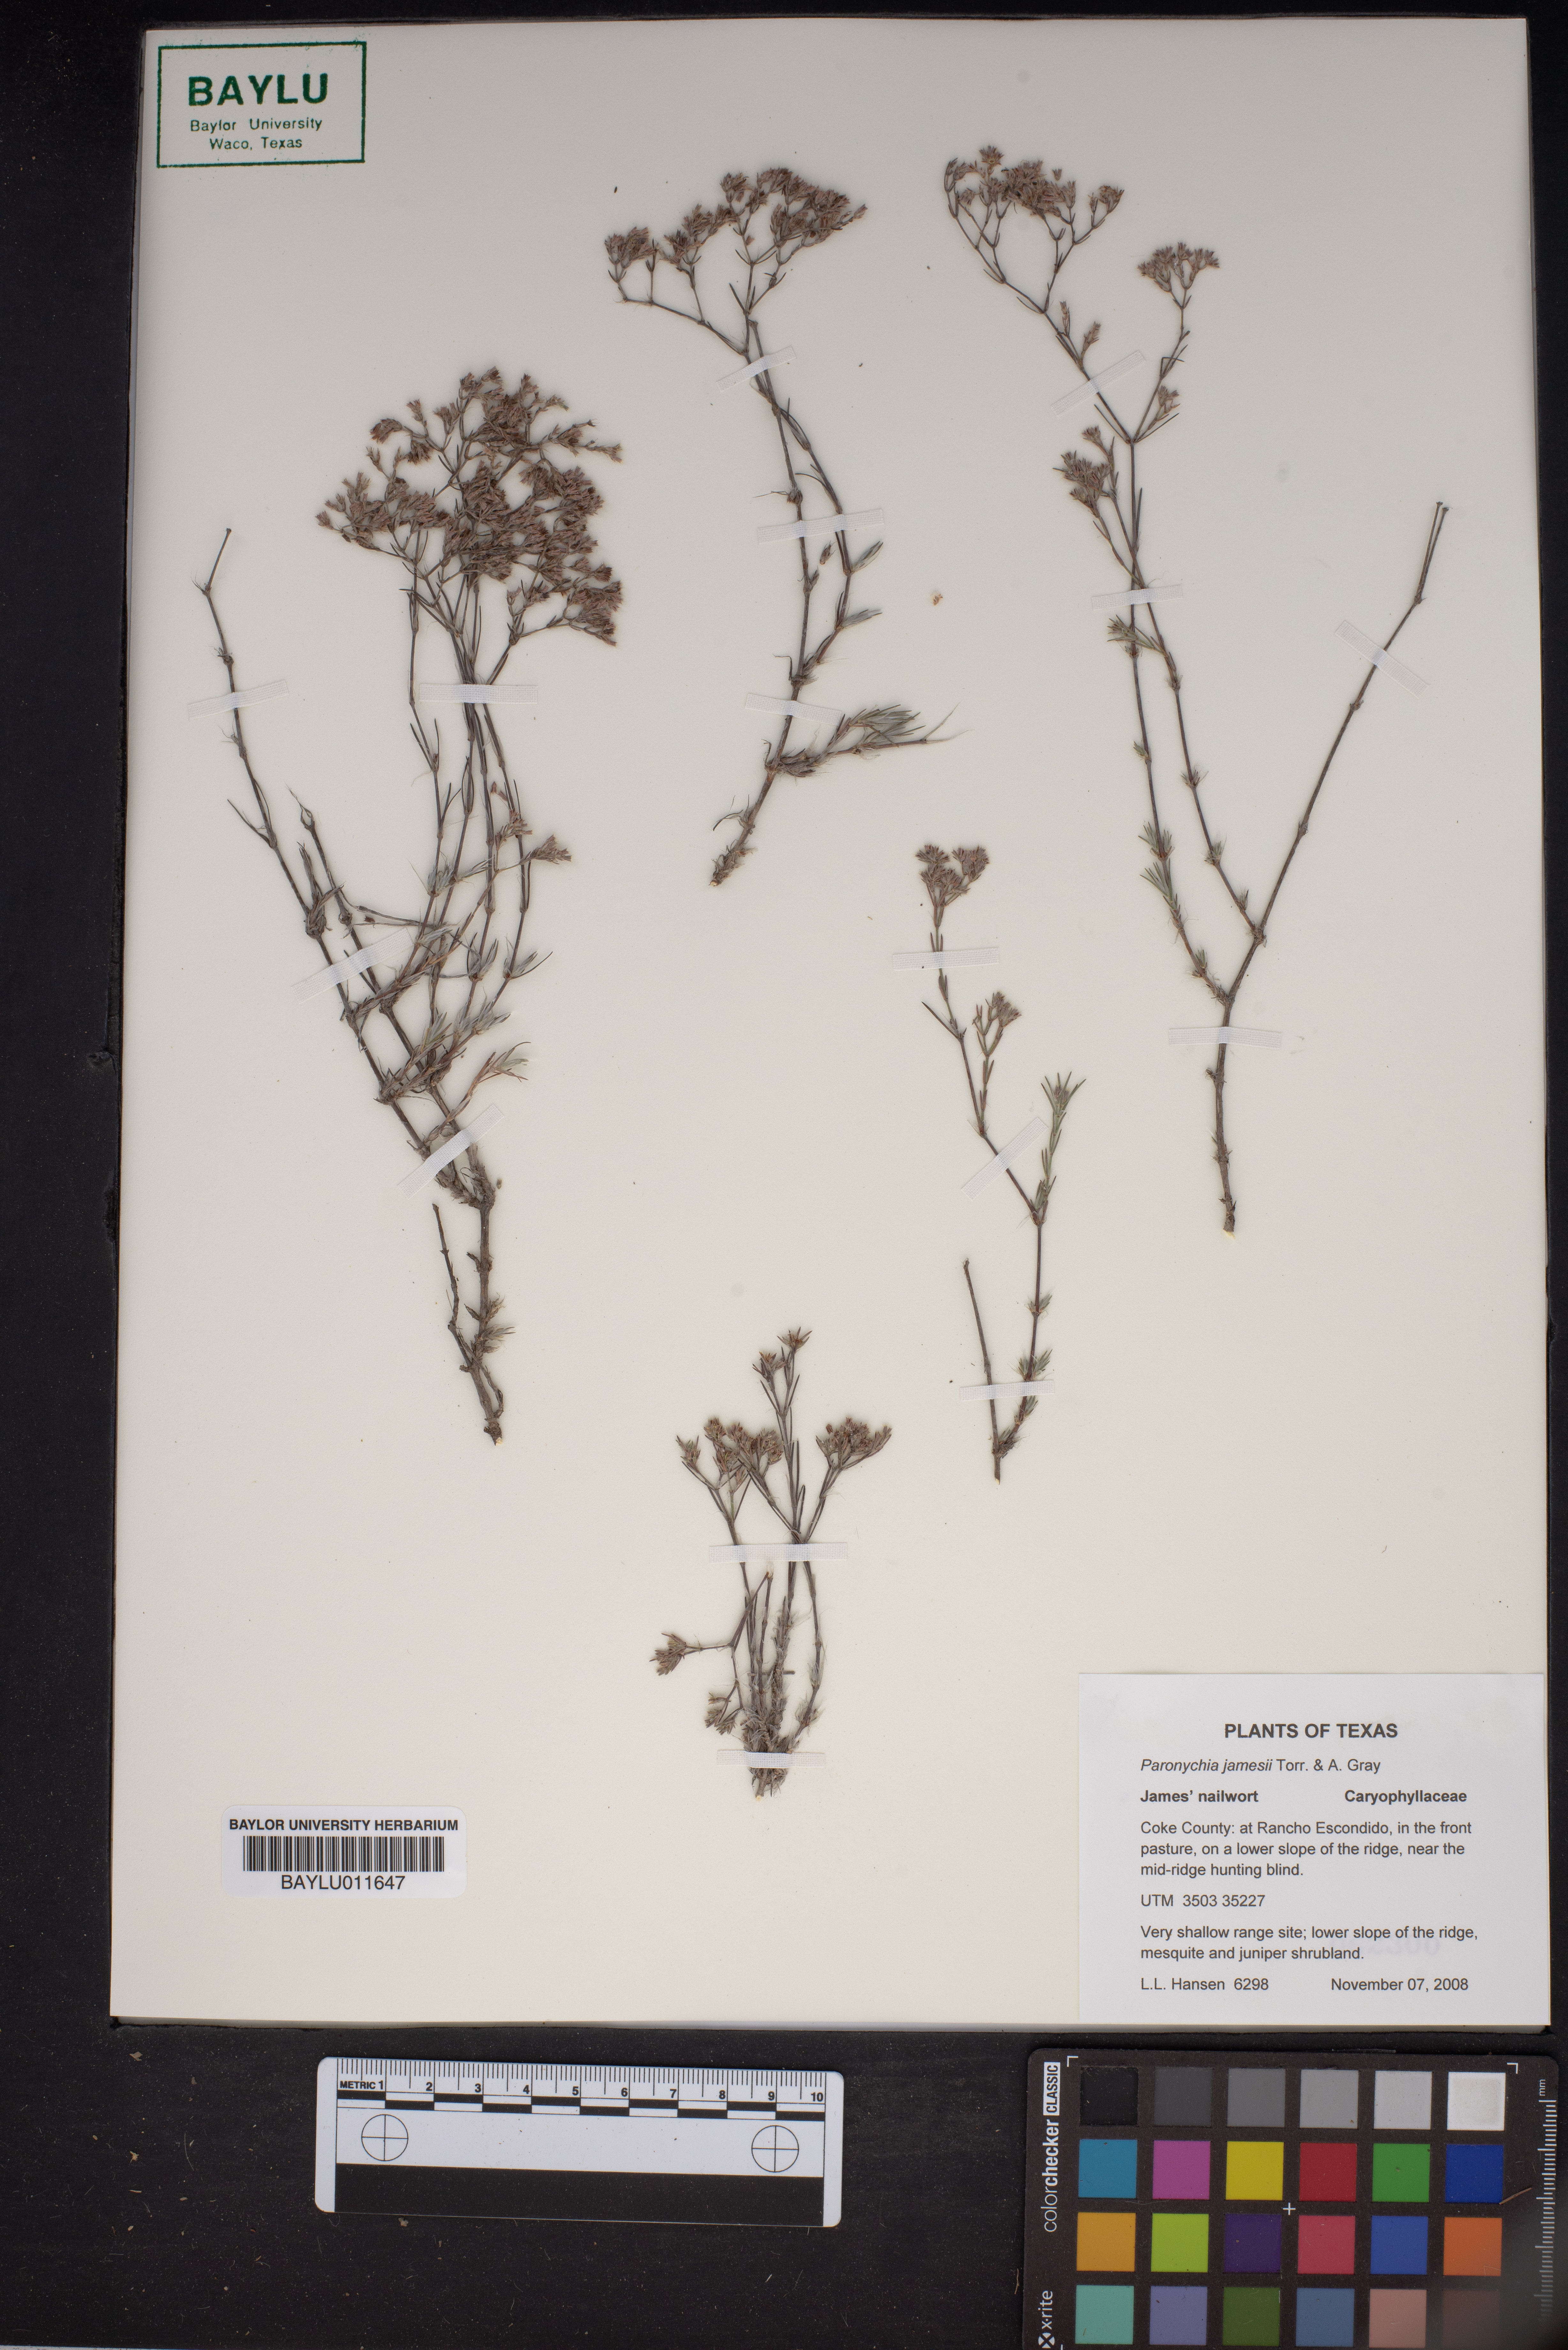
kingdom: Plantae
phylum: Tracheophyta
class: Magnoliopsida
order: Caryophyllales
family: Caryophyllaceae
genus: Paronychia
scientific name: Paronychia jamesii
